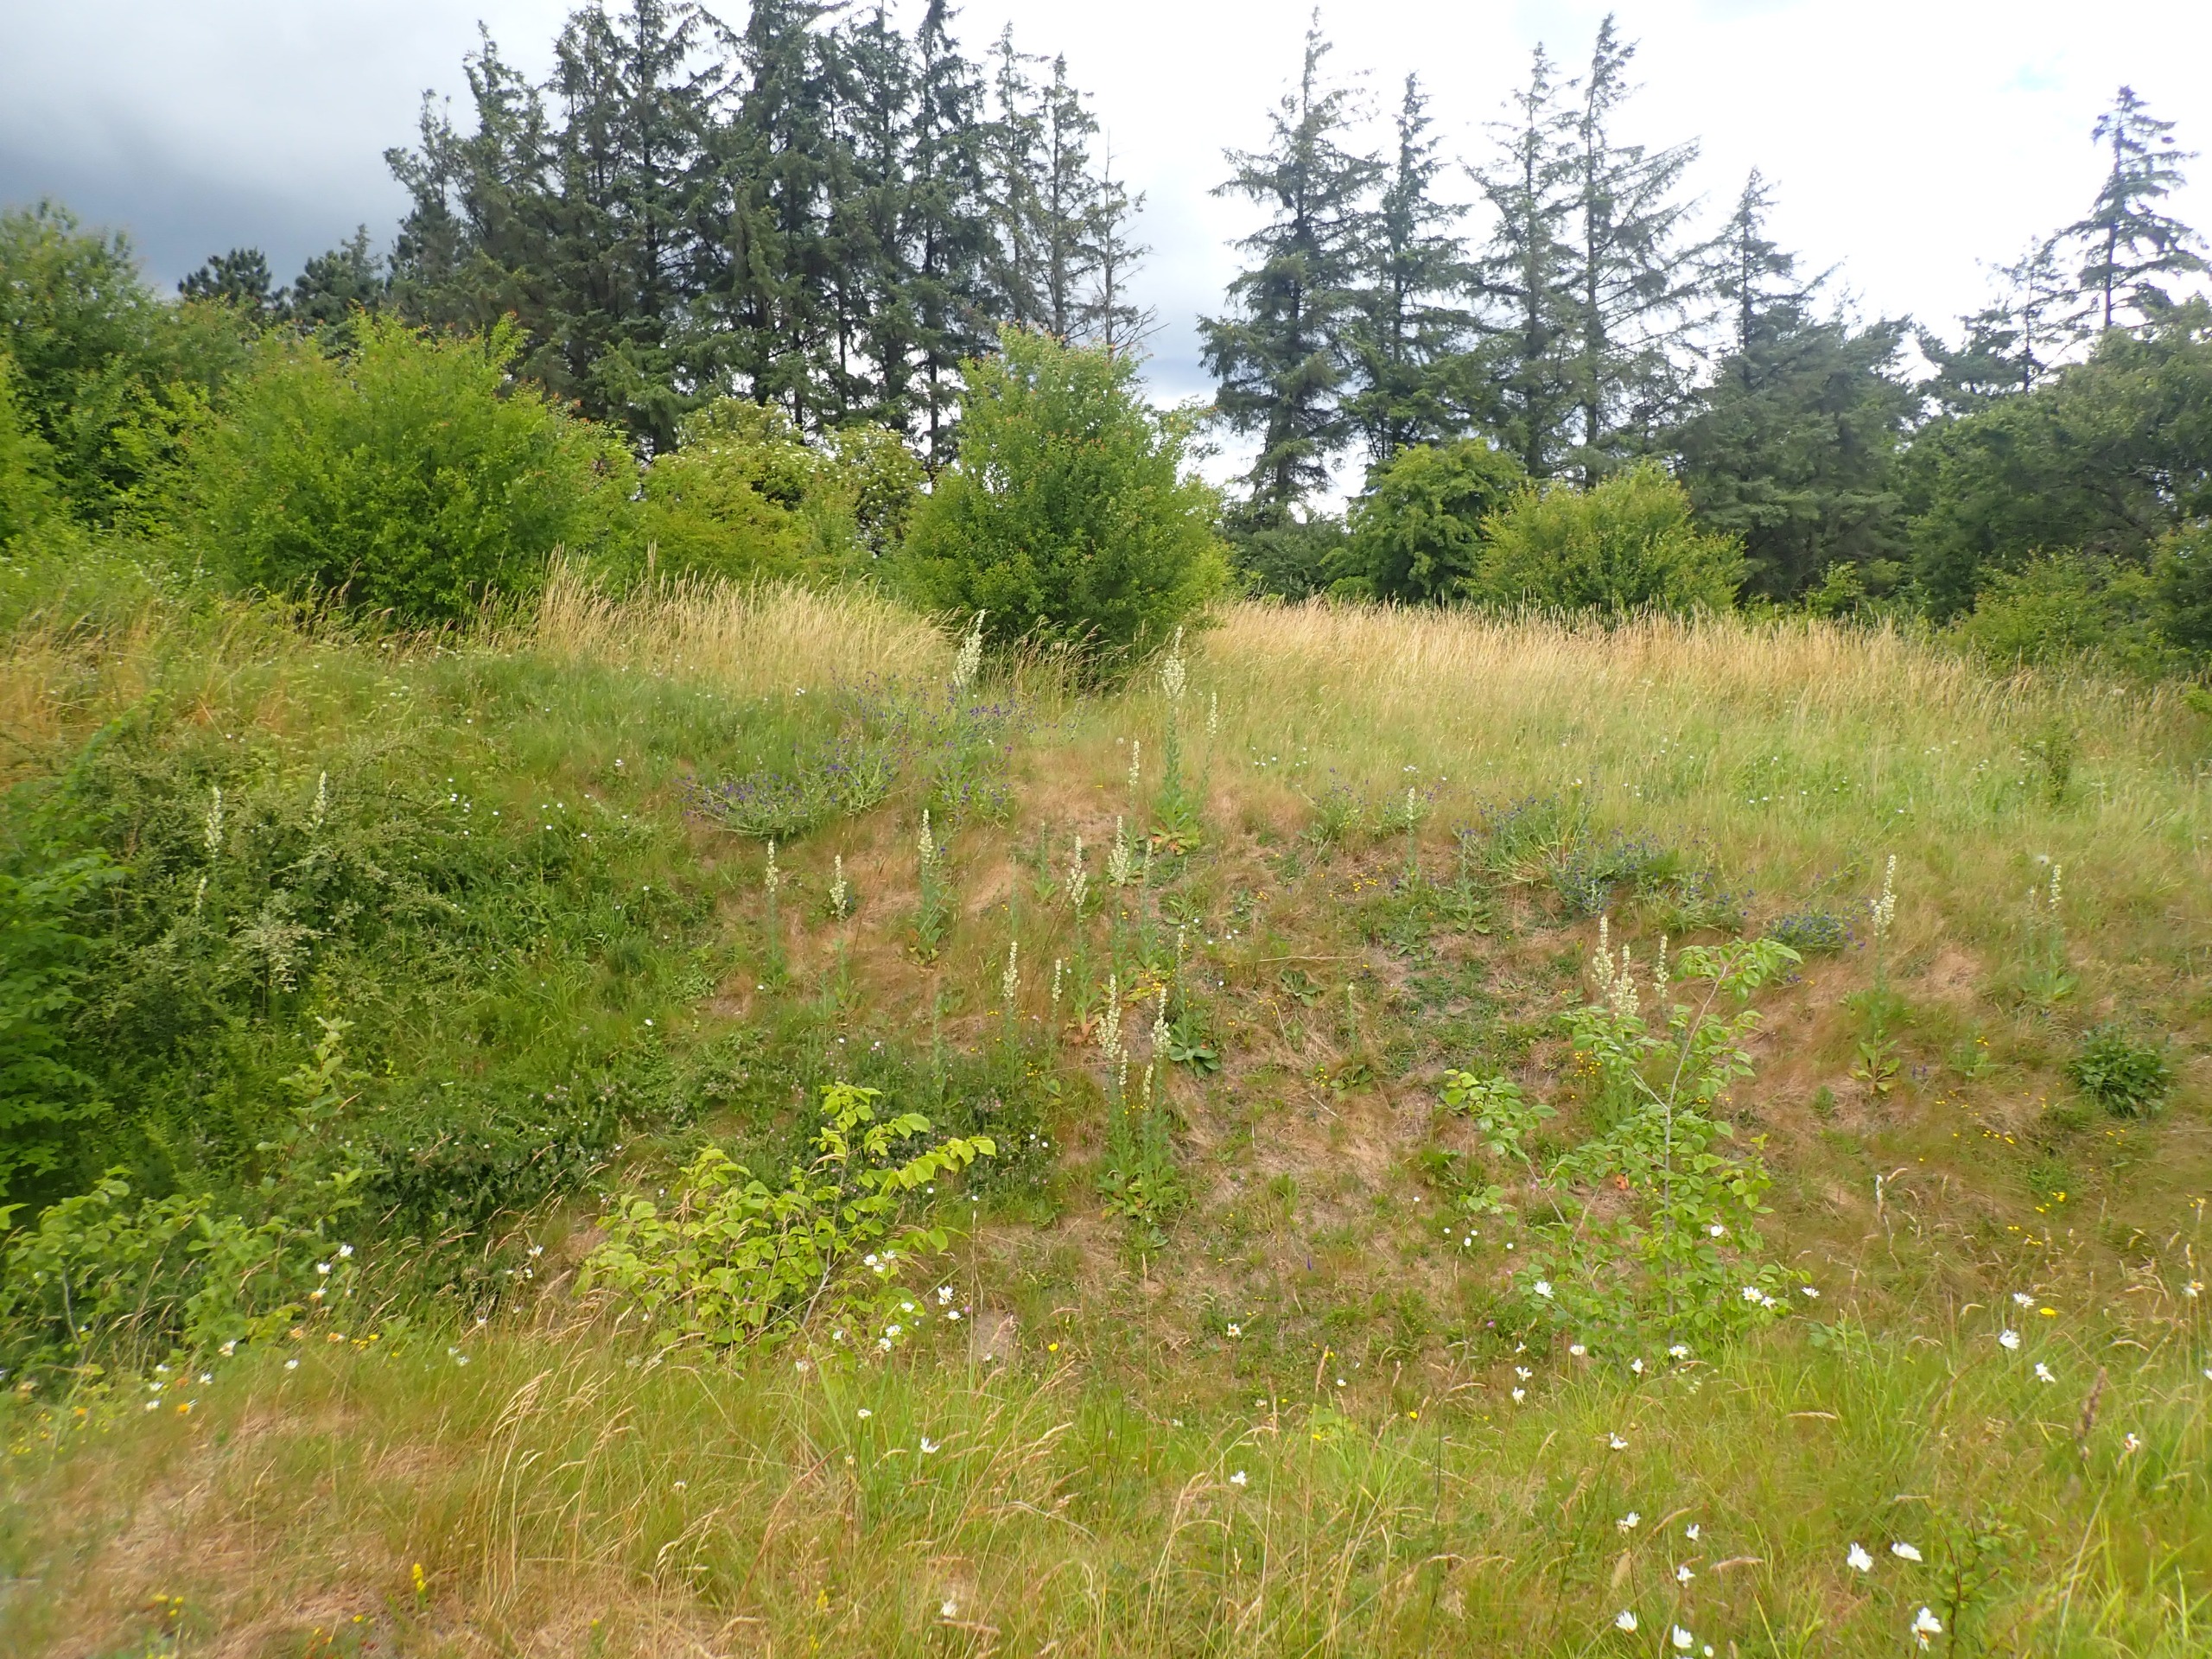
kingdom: Plantae
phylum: Tracheophyta
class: Magnoliopsida
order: Lamiales
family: Scrophulariaceae
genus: Verbascum
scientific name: Verbascum lychnitis
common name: Bleg kongelys
